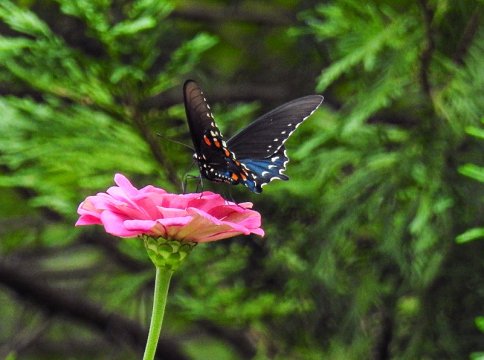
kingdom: Animalia
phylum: Arthropoda
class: Insecta
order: Lepidoptera
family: Papilionidae
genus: Battus
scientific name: Battus philenor
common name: Pipevine Swallowtail
